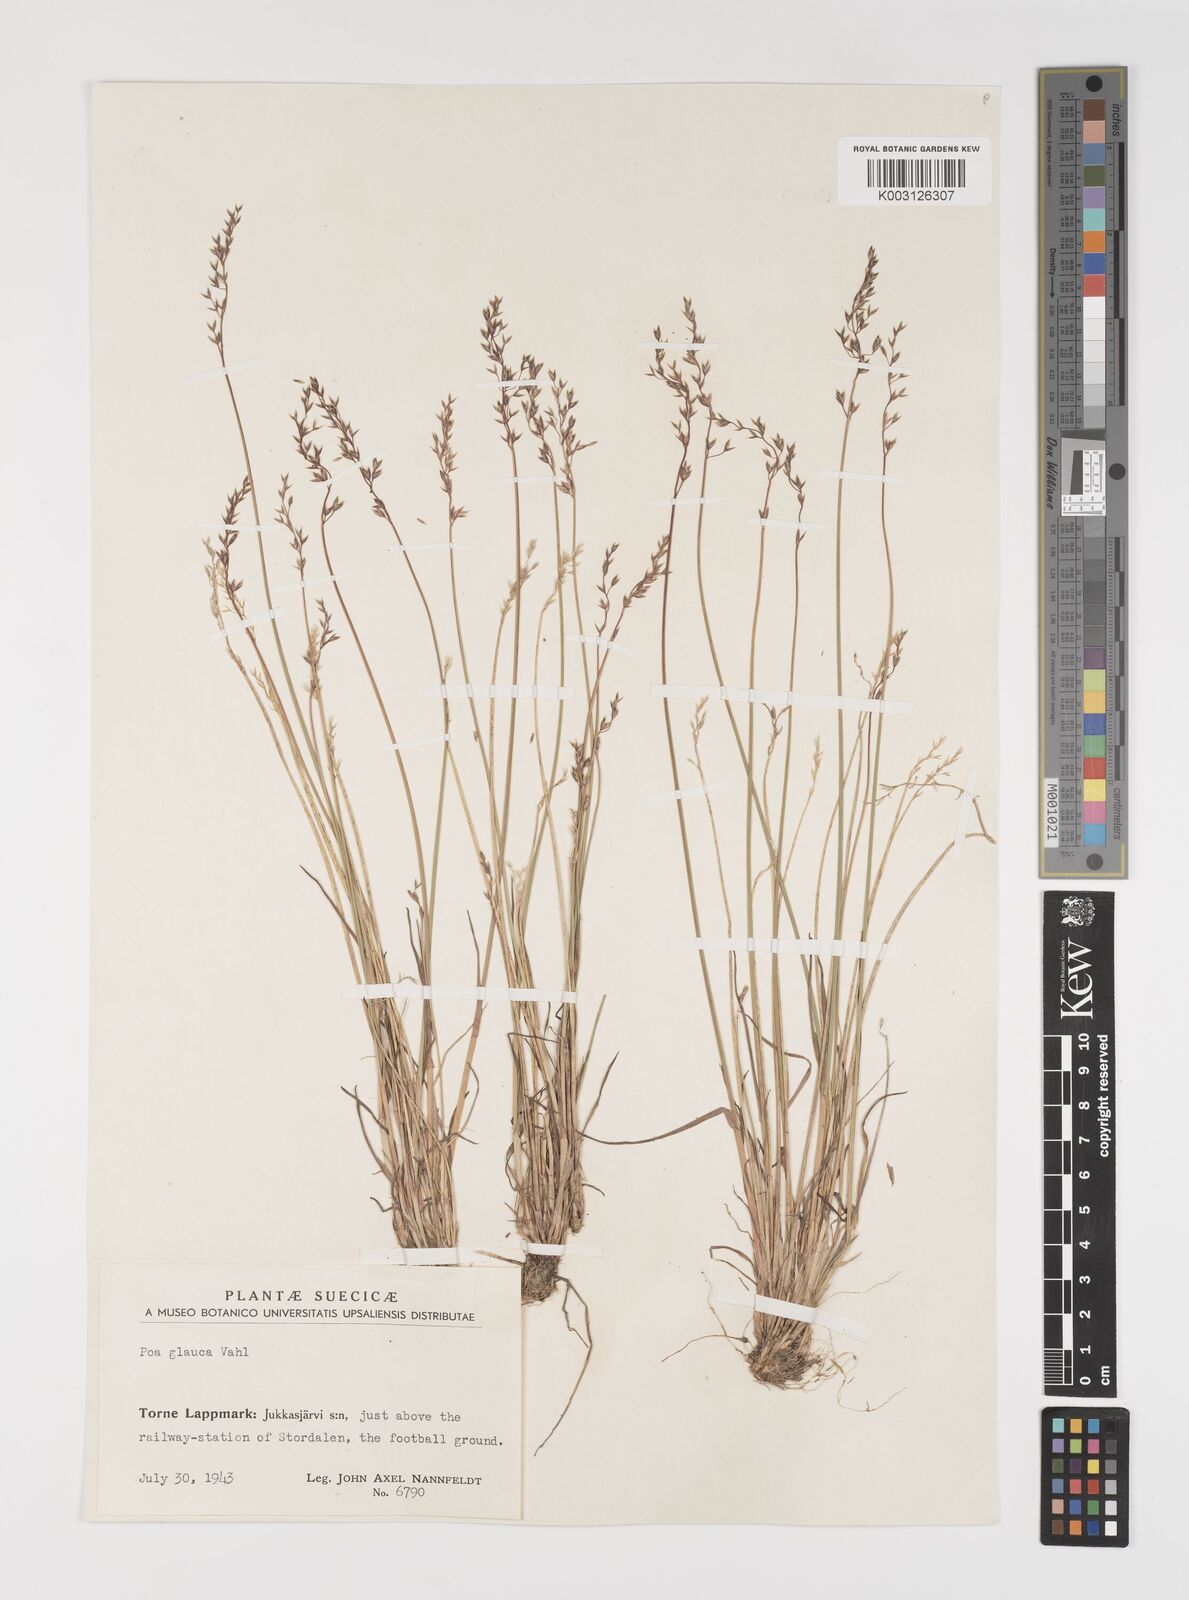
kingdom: Plantae
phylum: Tracheophyta
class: Liliopsida
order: Poales
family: Poaceae
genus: Poa
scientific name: Poa glauca
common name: Glaucous bluegrass
